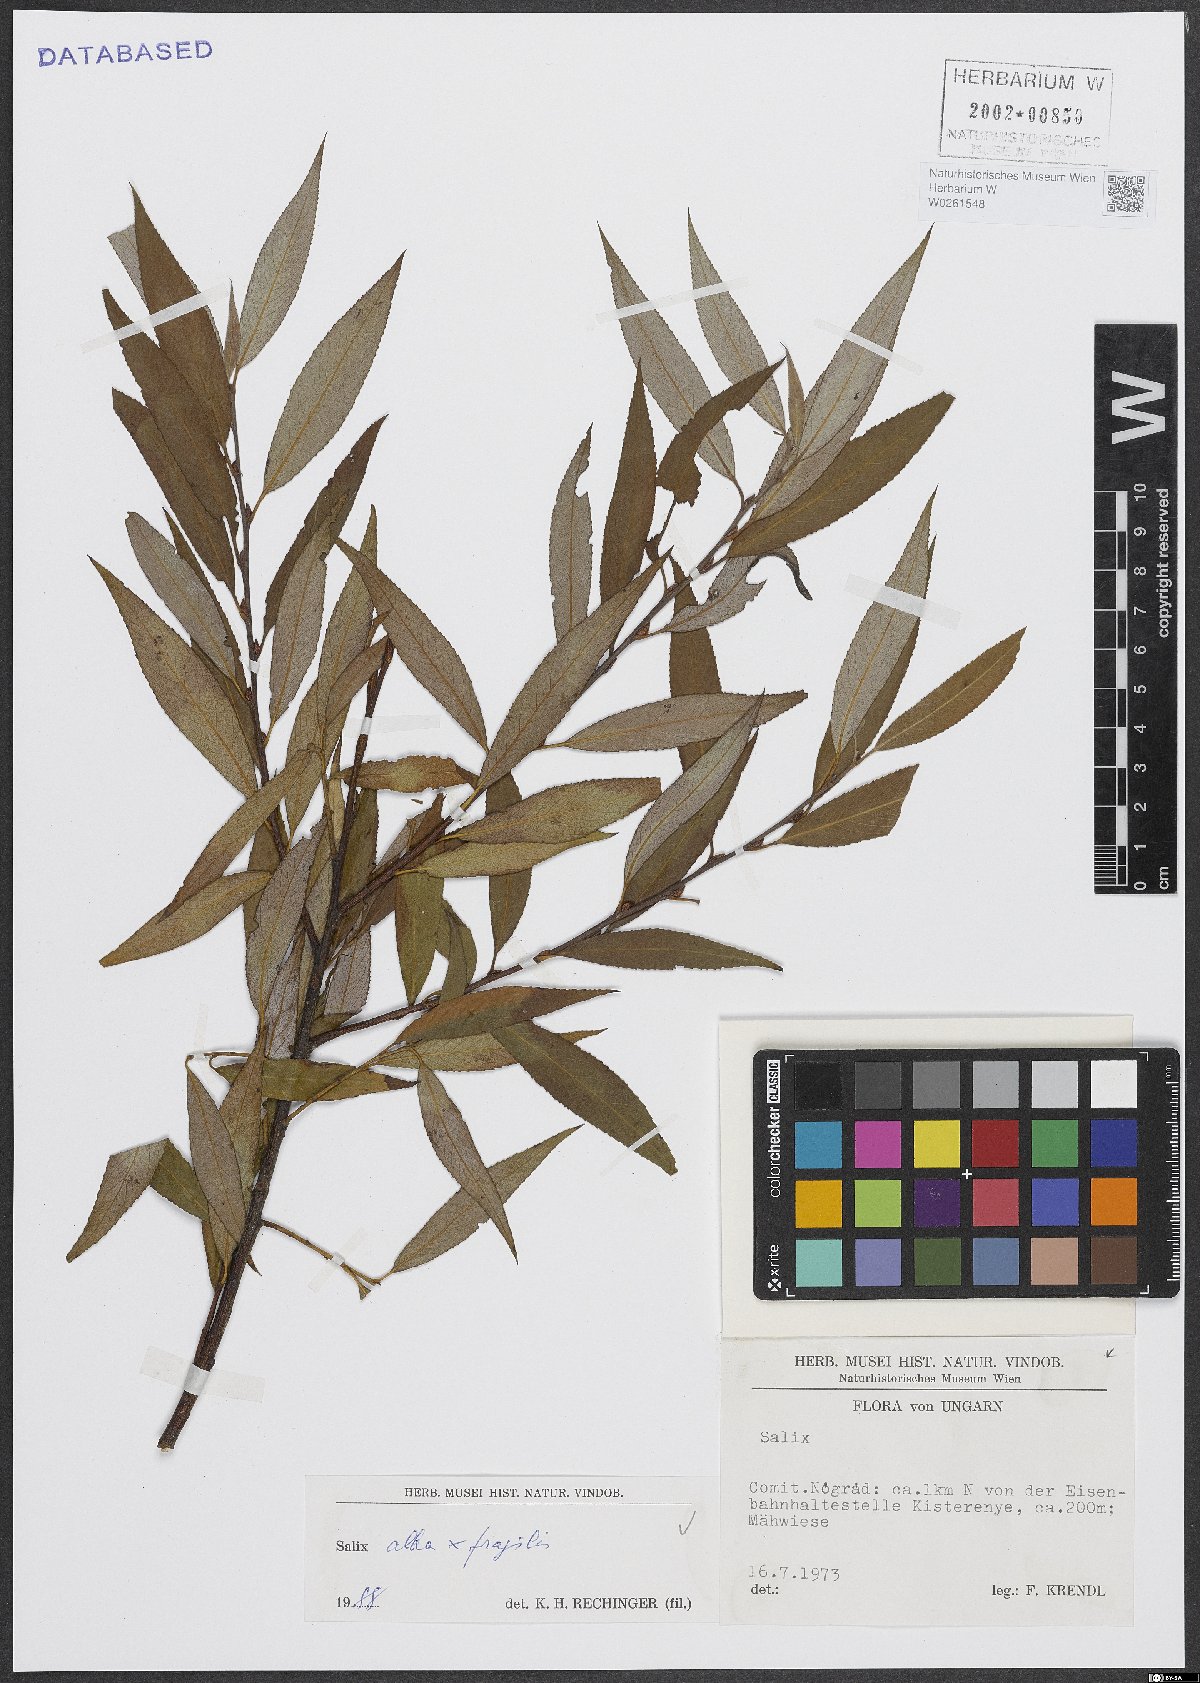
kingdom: Plantae
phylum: Tracheophyta
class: Magnoliopsida
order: Malpighiales
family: Salicaceae
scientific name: Salicaceae
